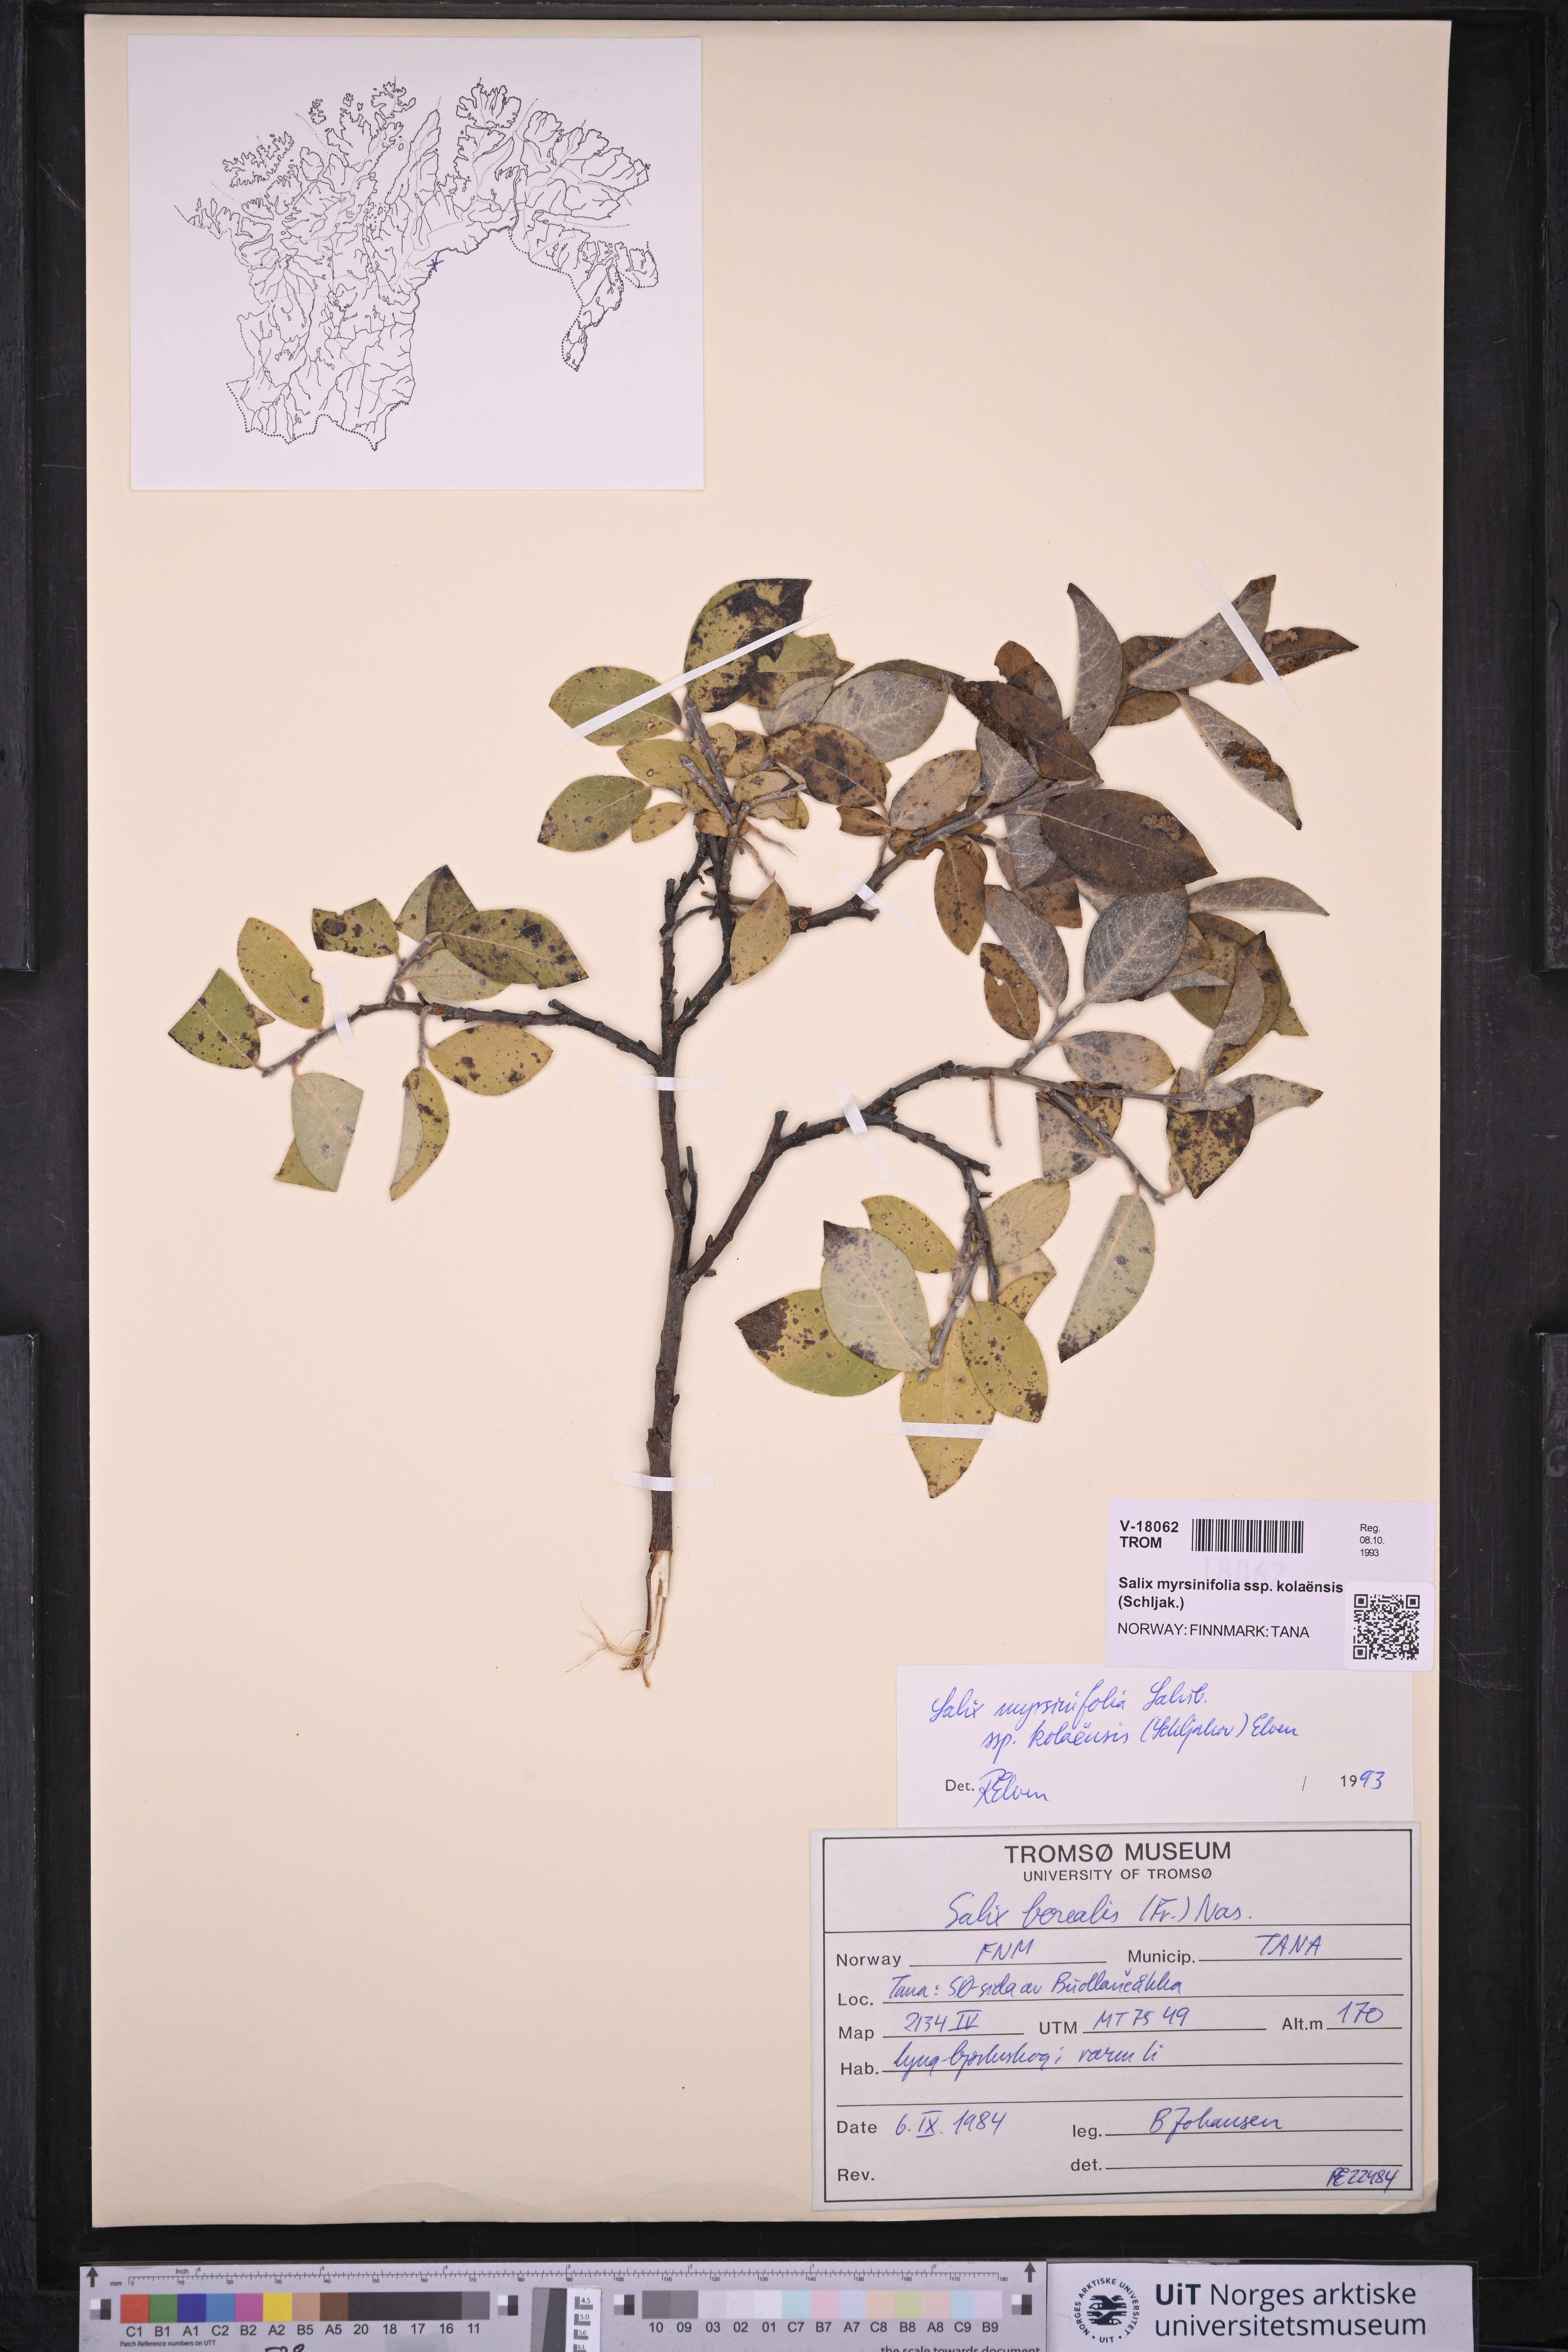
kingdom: Plantae
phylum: Tracheophyta
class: Magnoliopsida
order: Malpighiales
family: Salicaceae
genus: Salix
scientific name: Salix myrsinifolia
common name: Dark-leaved willow
